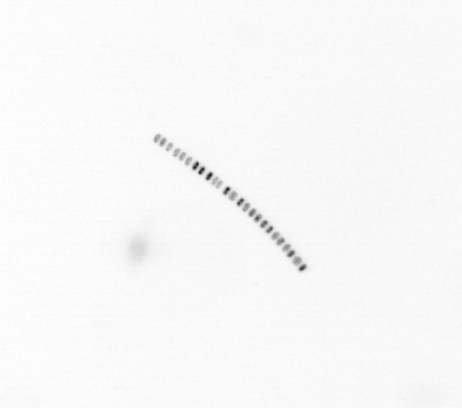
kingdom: Chromista
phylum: Ochrophyta
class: Bacillariophyceae
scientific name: Bacillariophyceae
